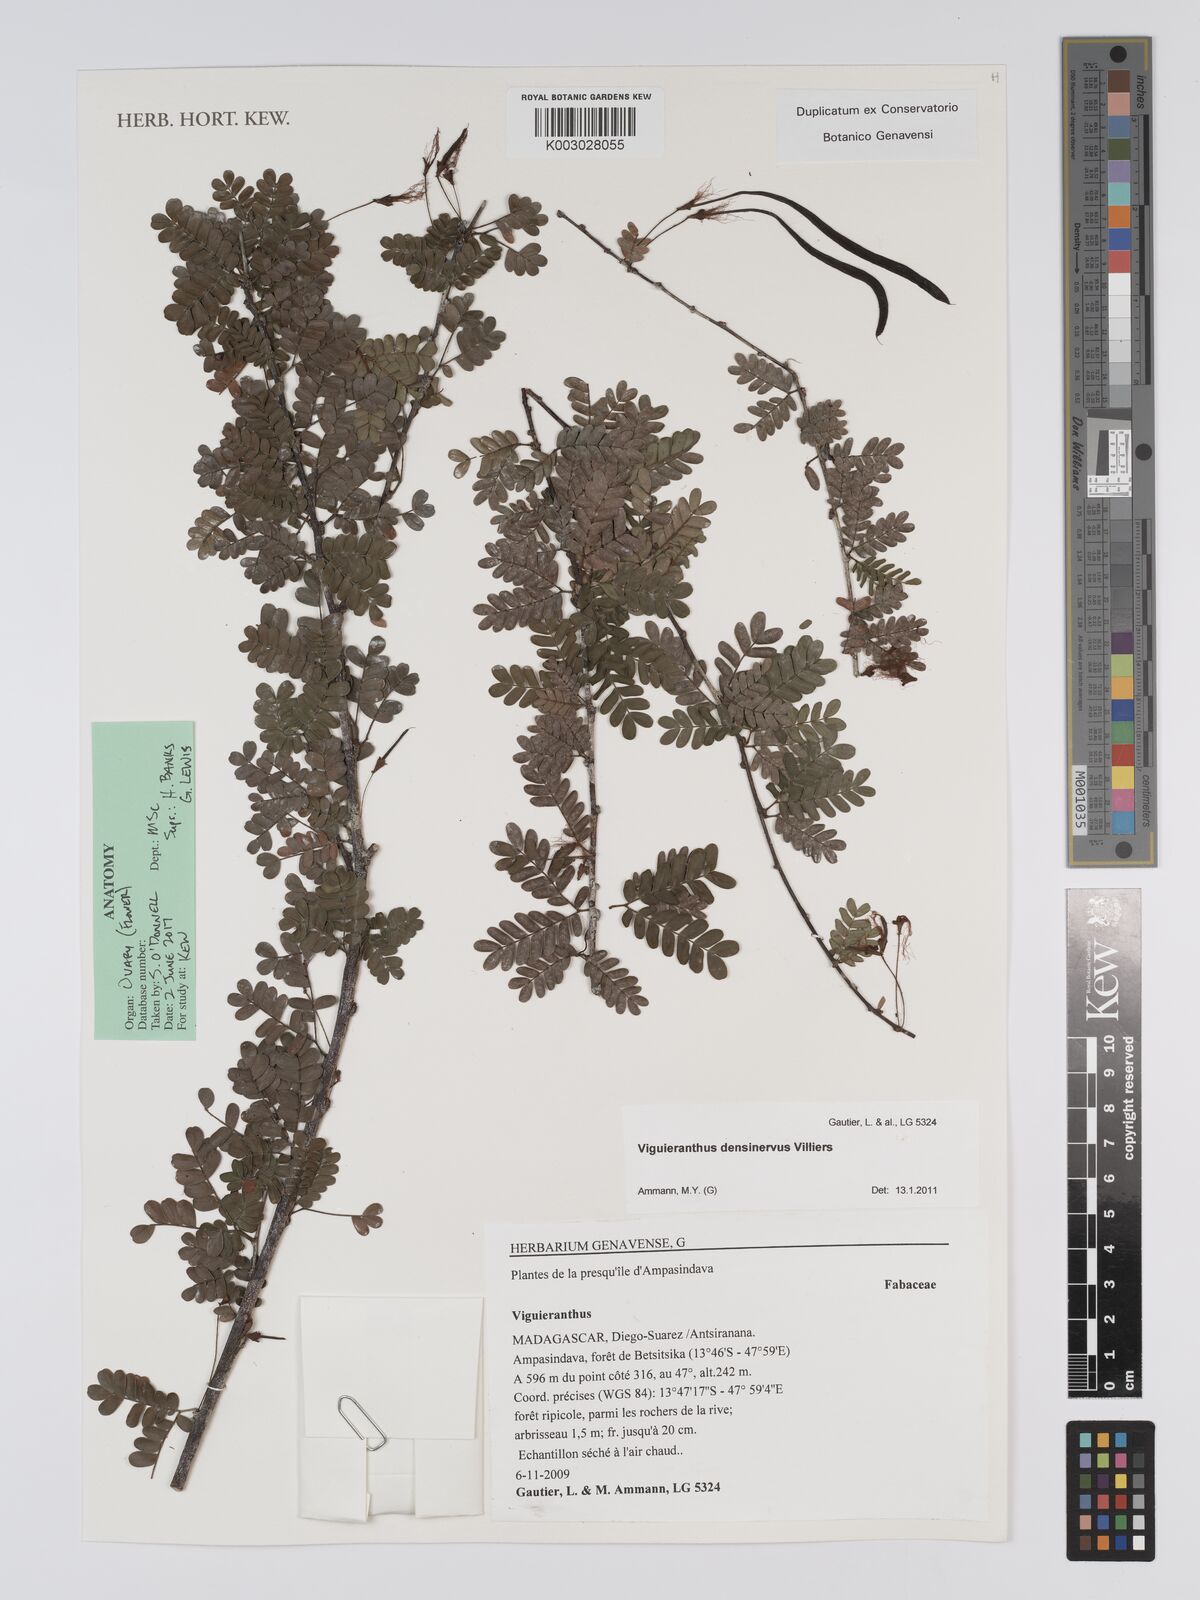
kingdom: Plantae
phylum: Tracheophyta
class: Magnoliopsida
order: Fabales
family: Fabaceae
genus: Viguieranthus
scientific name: Viguieranthus densinervus
